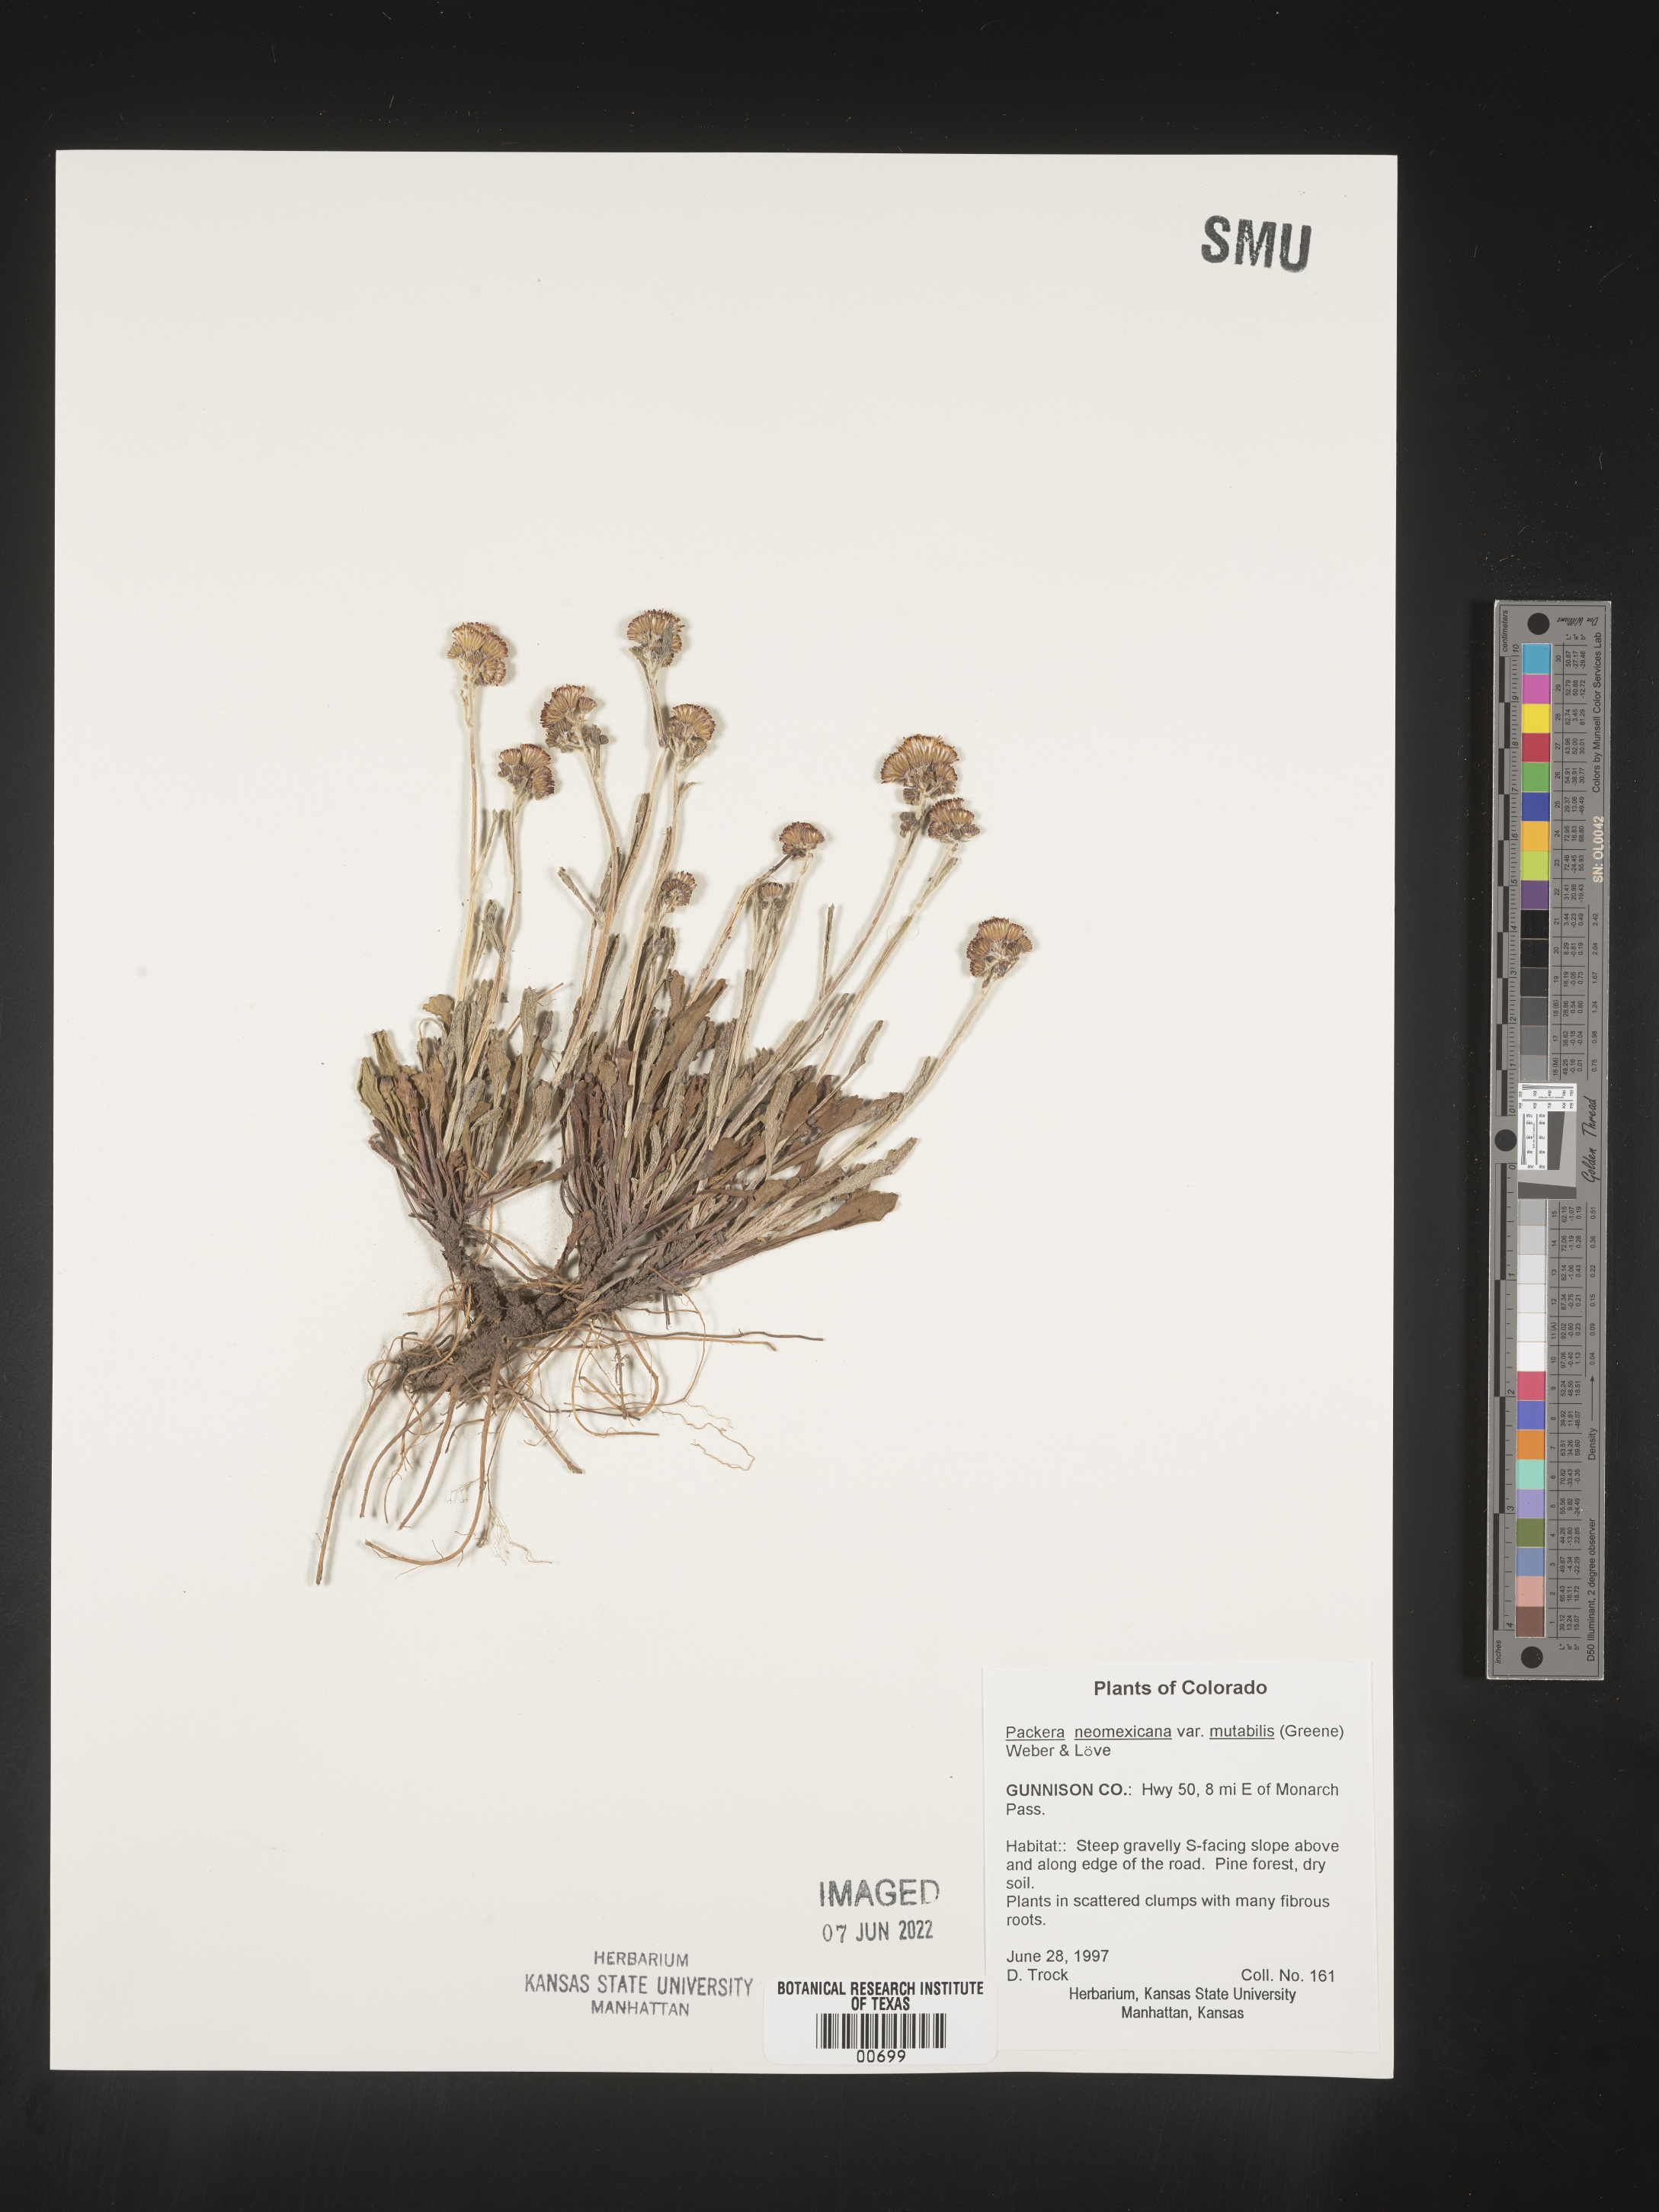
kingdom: Plantae
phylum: Tracheophyta
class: Magnoliopsida
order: Asterales
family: Asteraceae
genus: Packera
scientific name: Packera neomexicana
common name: New mexico butterweed
